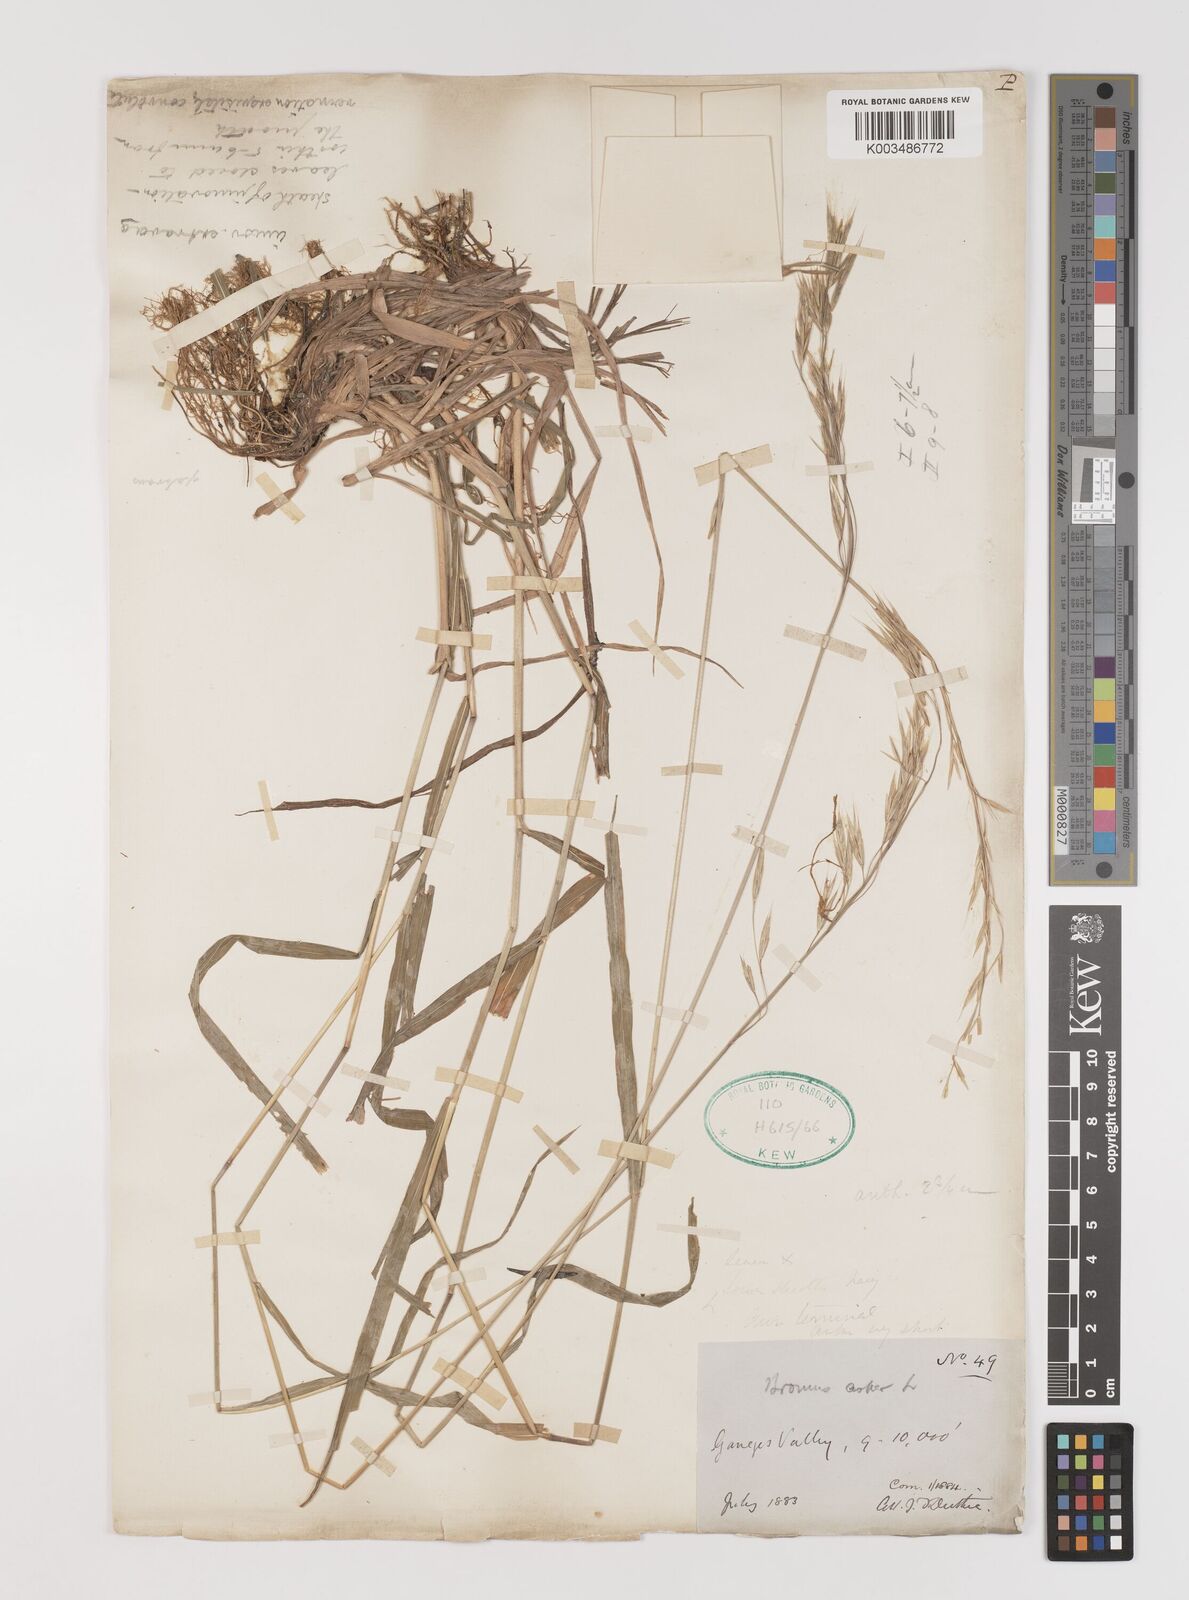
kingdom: Plantae
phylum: Tracheophyta
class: Liliopsida
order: Poales
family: Poaceae
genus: Brachypodium
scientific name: Brachypodium retusum
